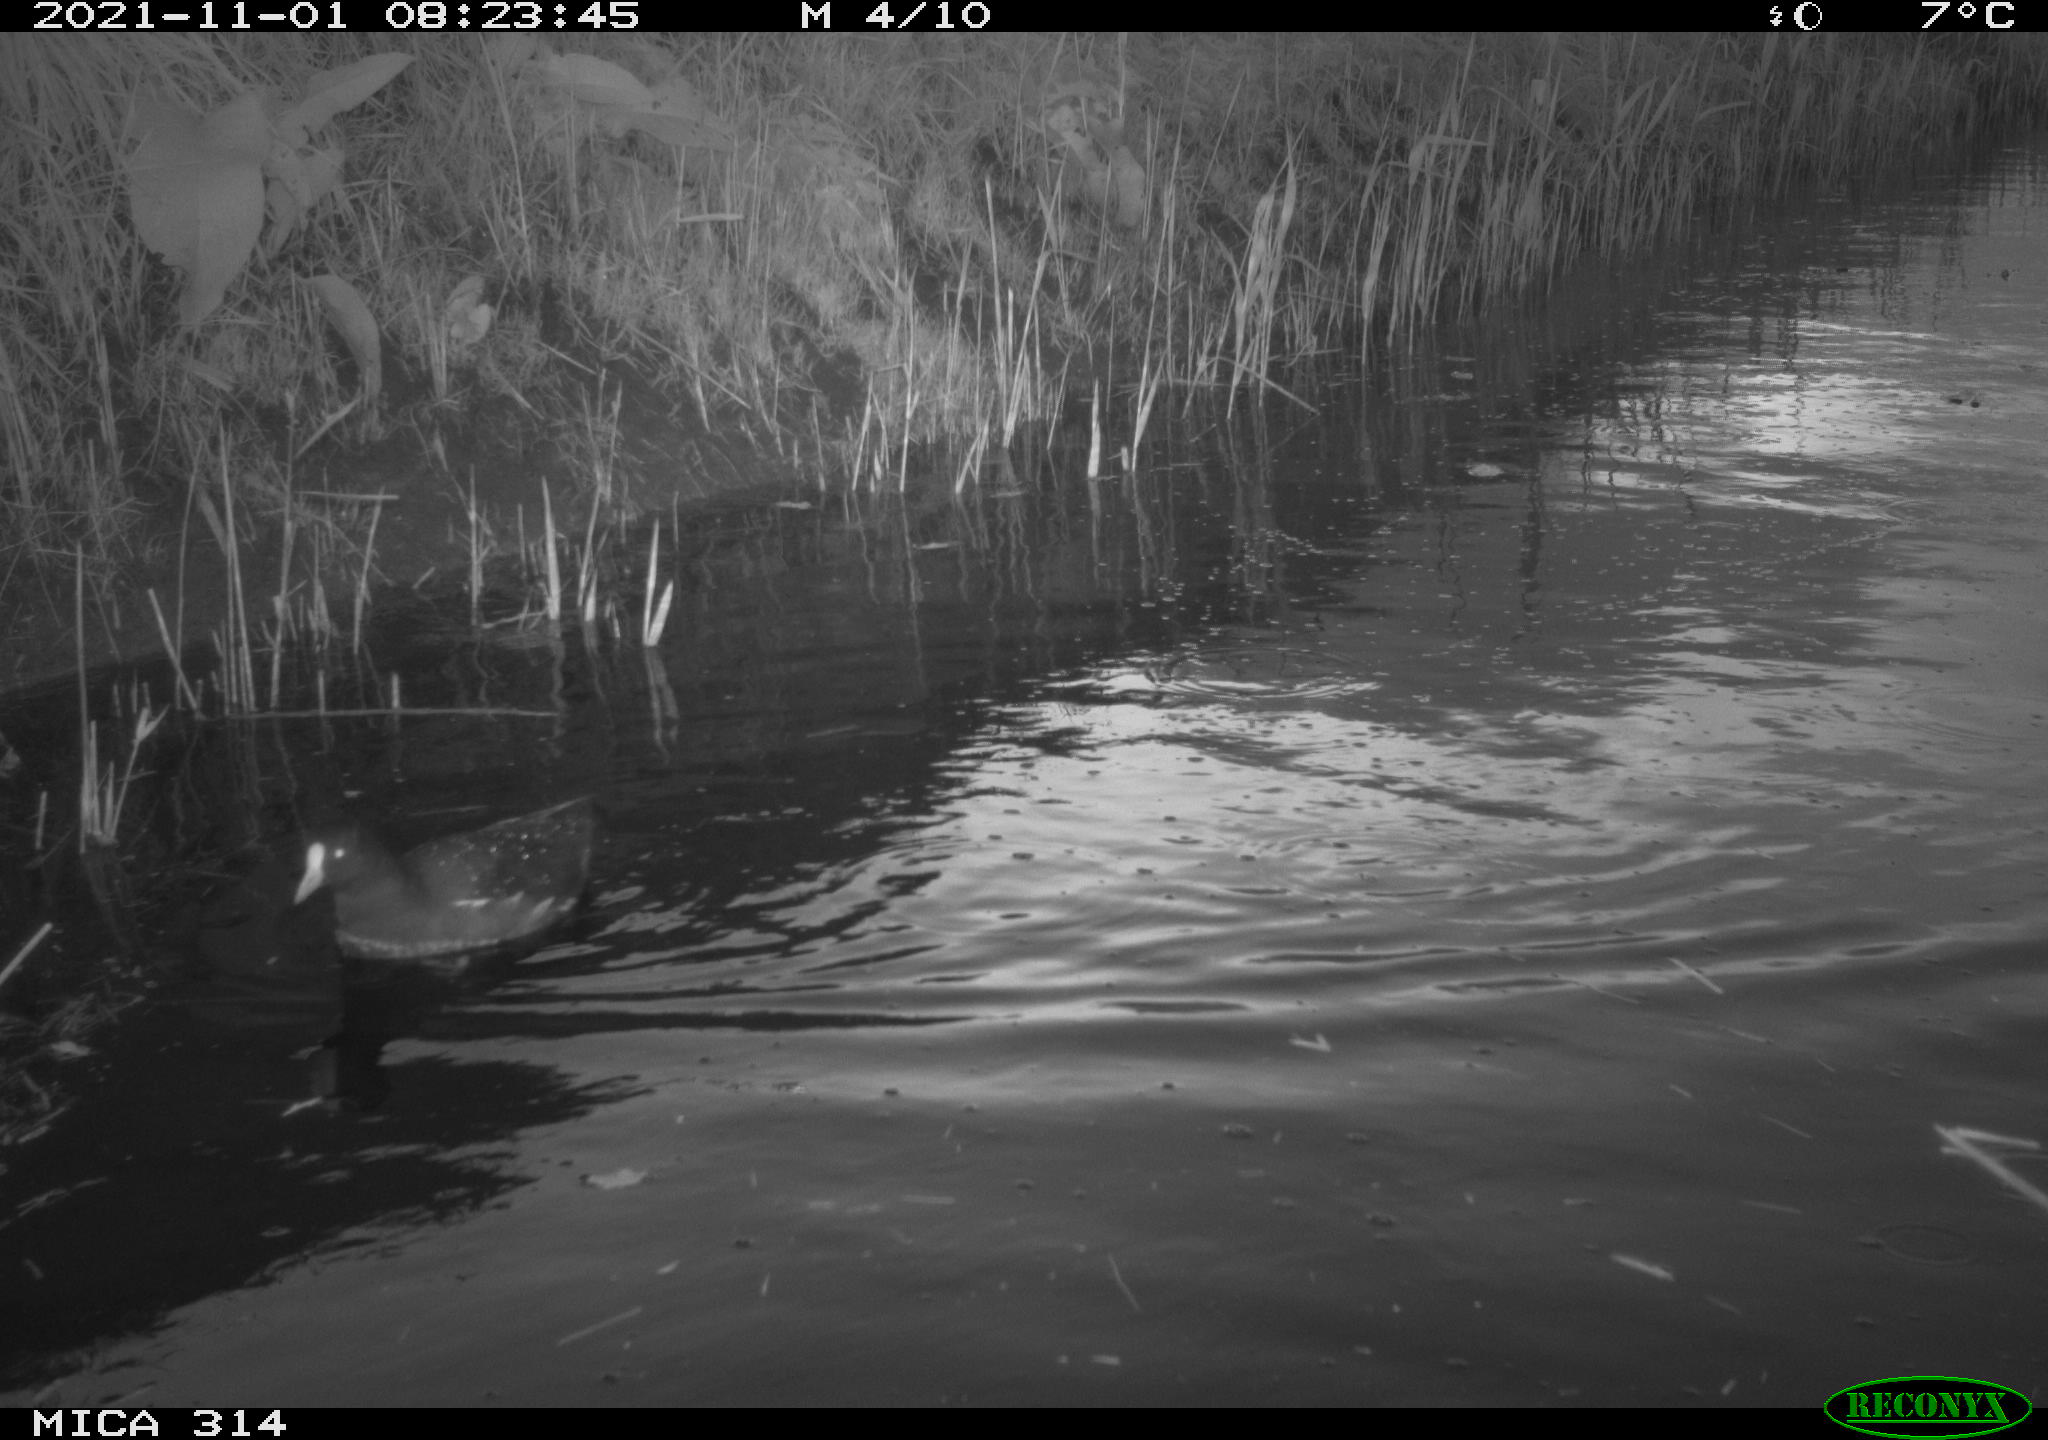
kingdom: Animalia
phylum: Chordata
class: Aves
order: Gruiformes
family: Rallidae
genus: Gallinula
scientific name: Gallinula chloropus
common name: Common moorhen
